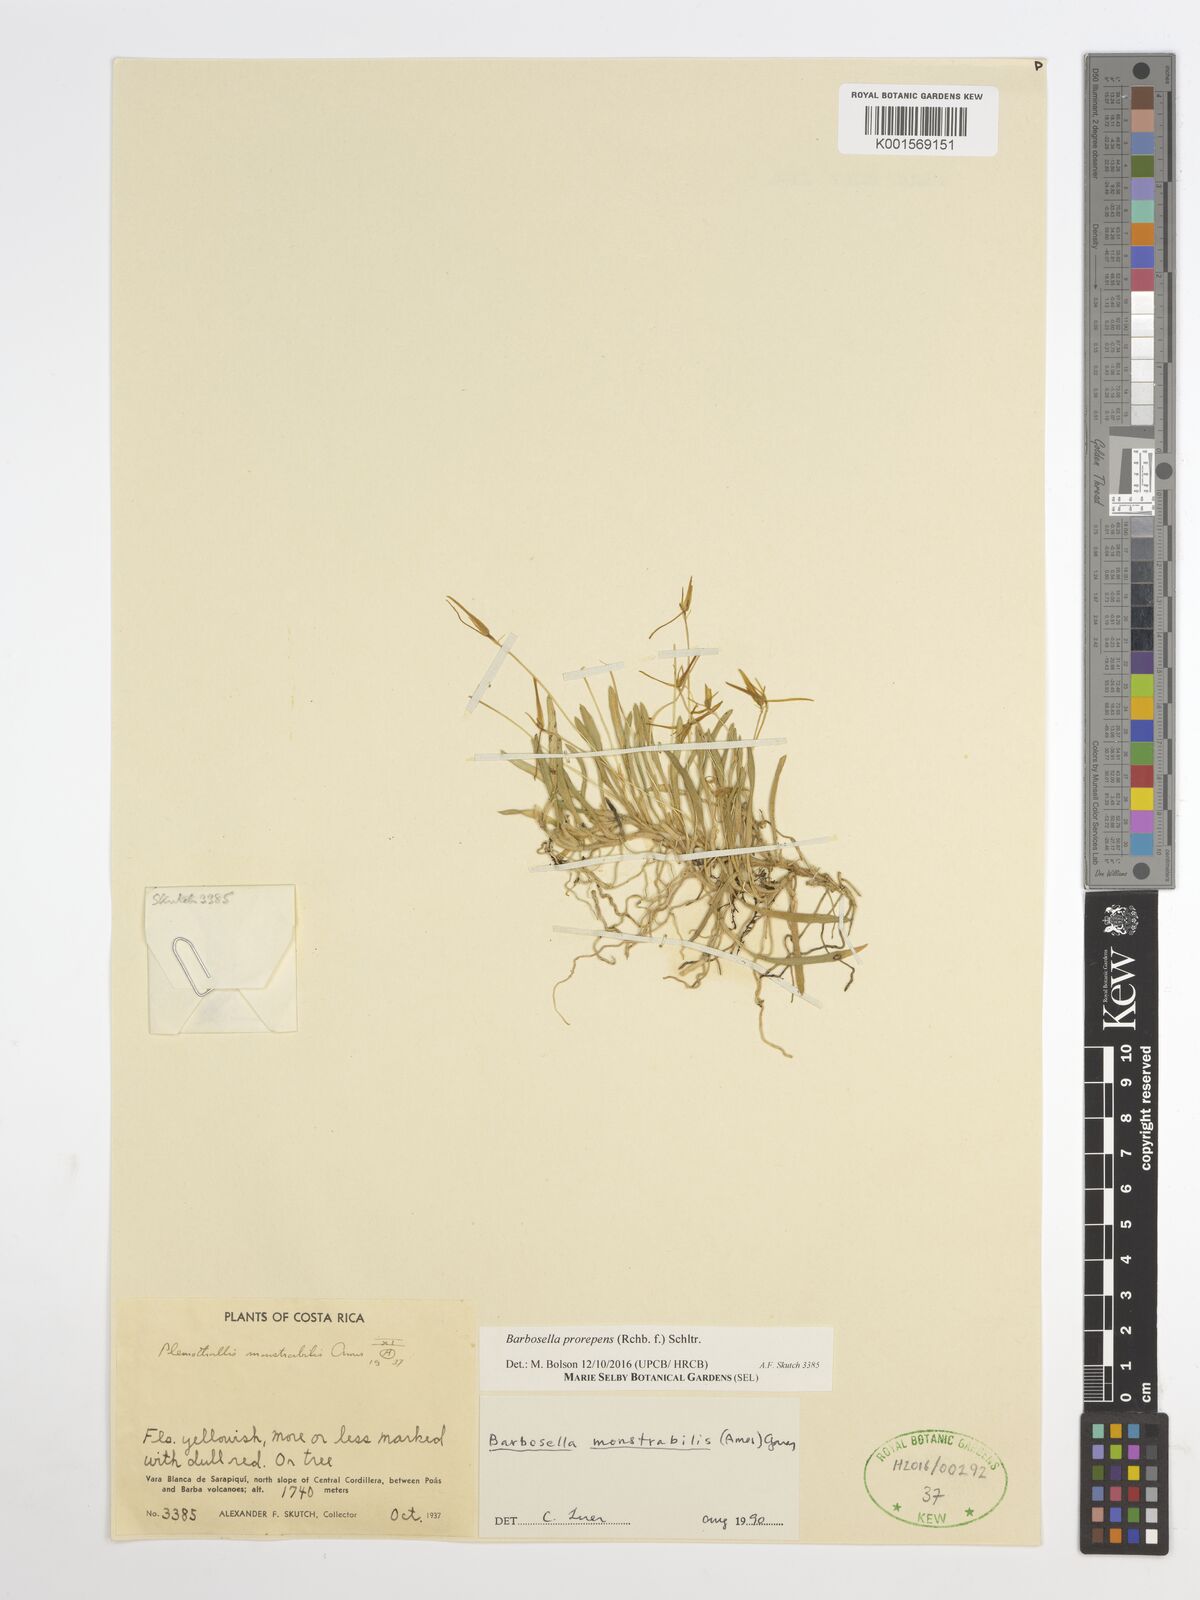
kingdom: Plantae
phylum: Tracheophyta
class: Liliopsida
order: Asparagales
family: Orchidaceae
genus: Barbosella
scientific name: Barbosella prorepens
